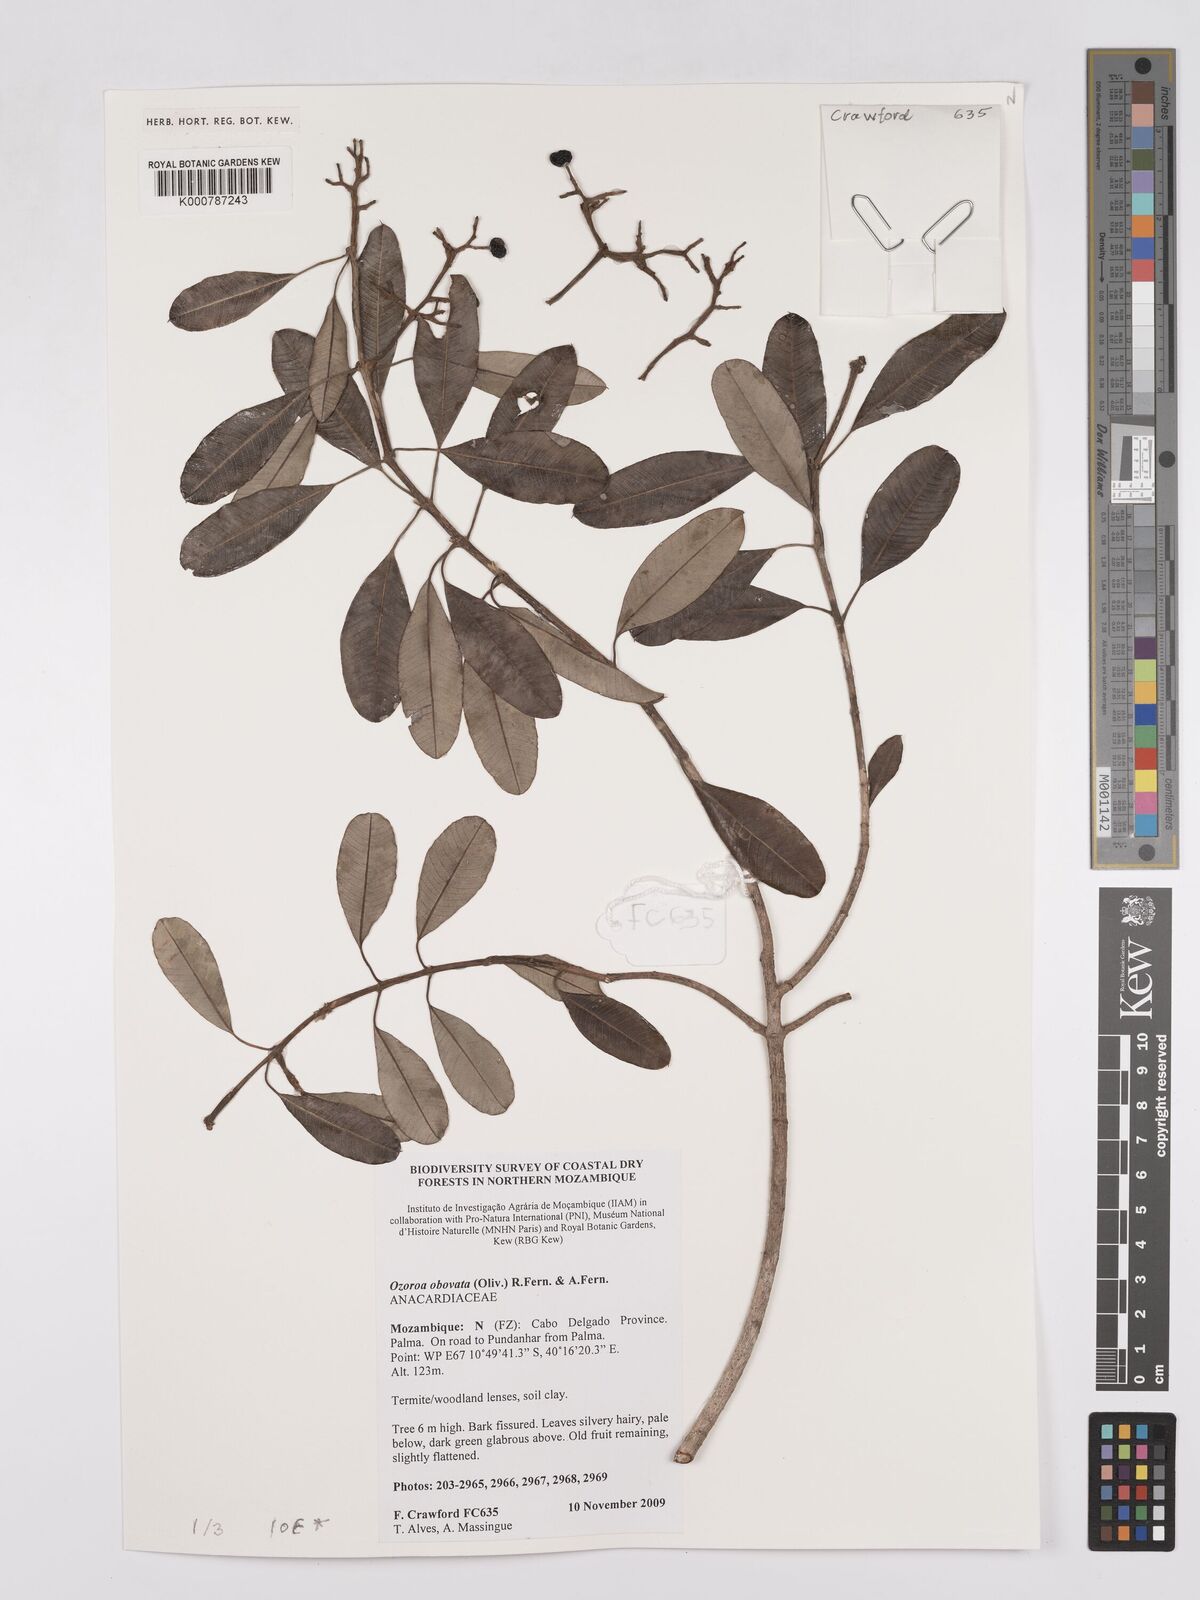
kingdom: Plantae
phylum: Tracheophyta
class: Magnoliopsida
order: Sapindales
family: Anacardiaceae
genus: Ozoroa
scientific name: Ozoroa obovata
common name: Broad-leaved resin tree
